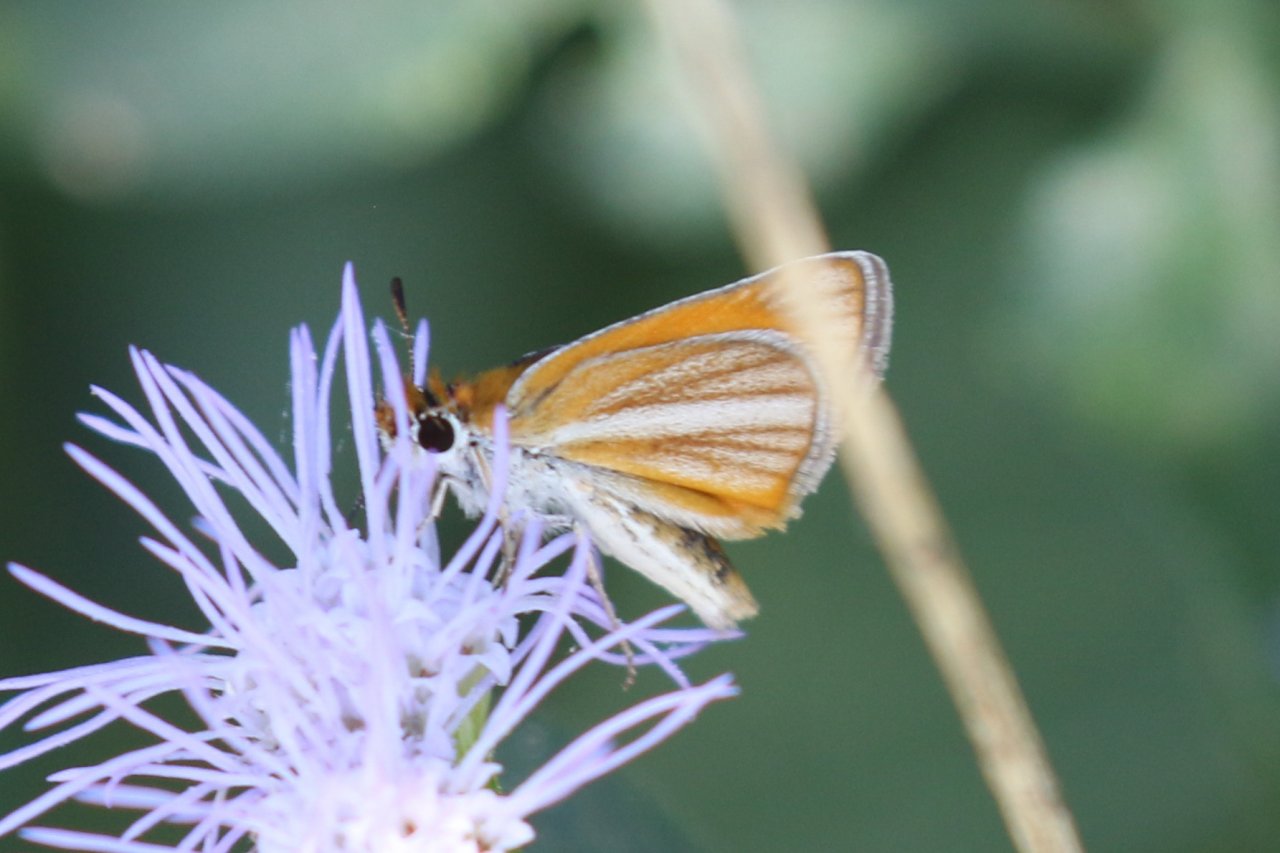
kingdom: Animalia
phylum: Arthropoda
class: Insecta
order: Lepidoptera
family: Hesperiidae
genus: Copaeodes
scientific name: Copaeodes minima
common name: Southern Skipperling
